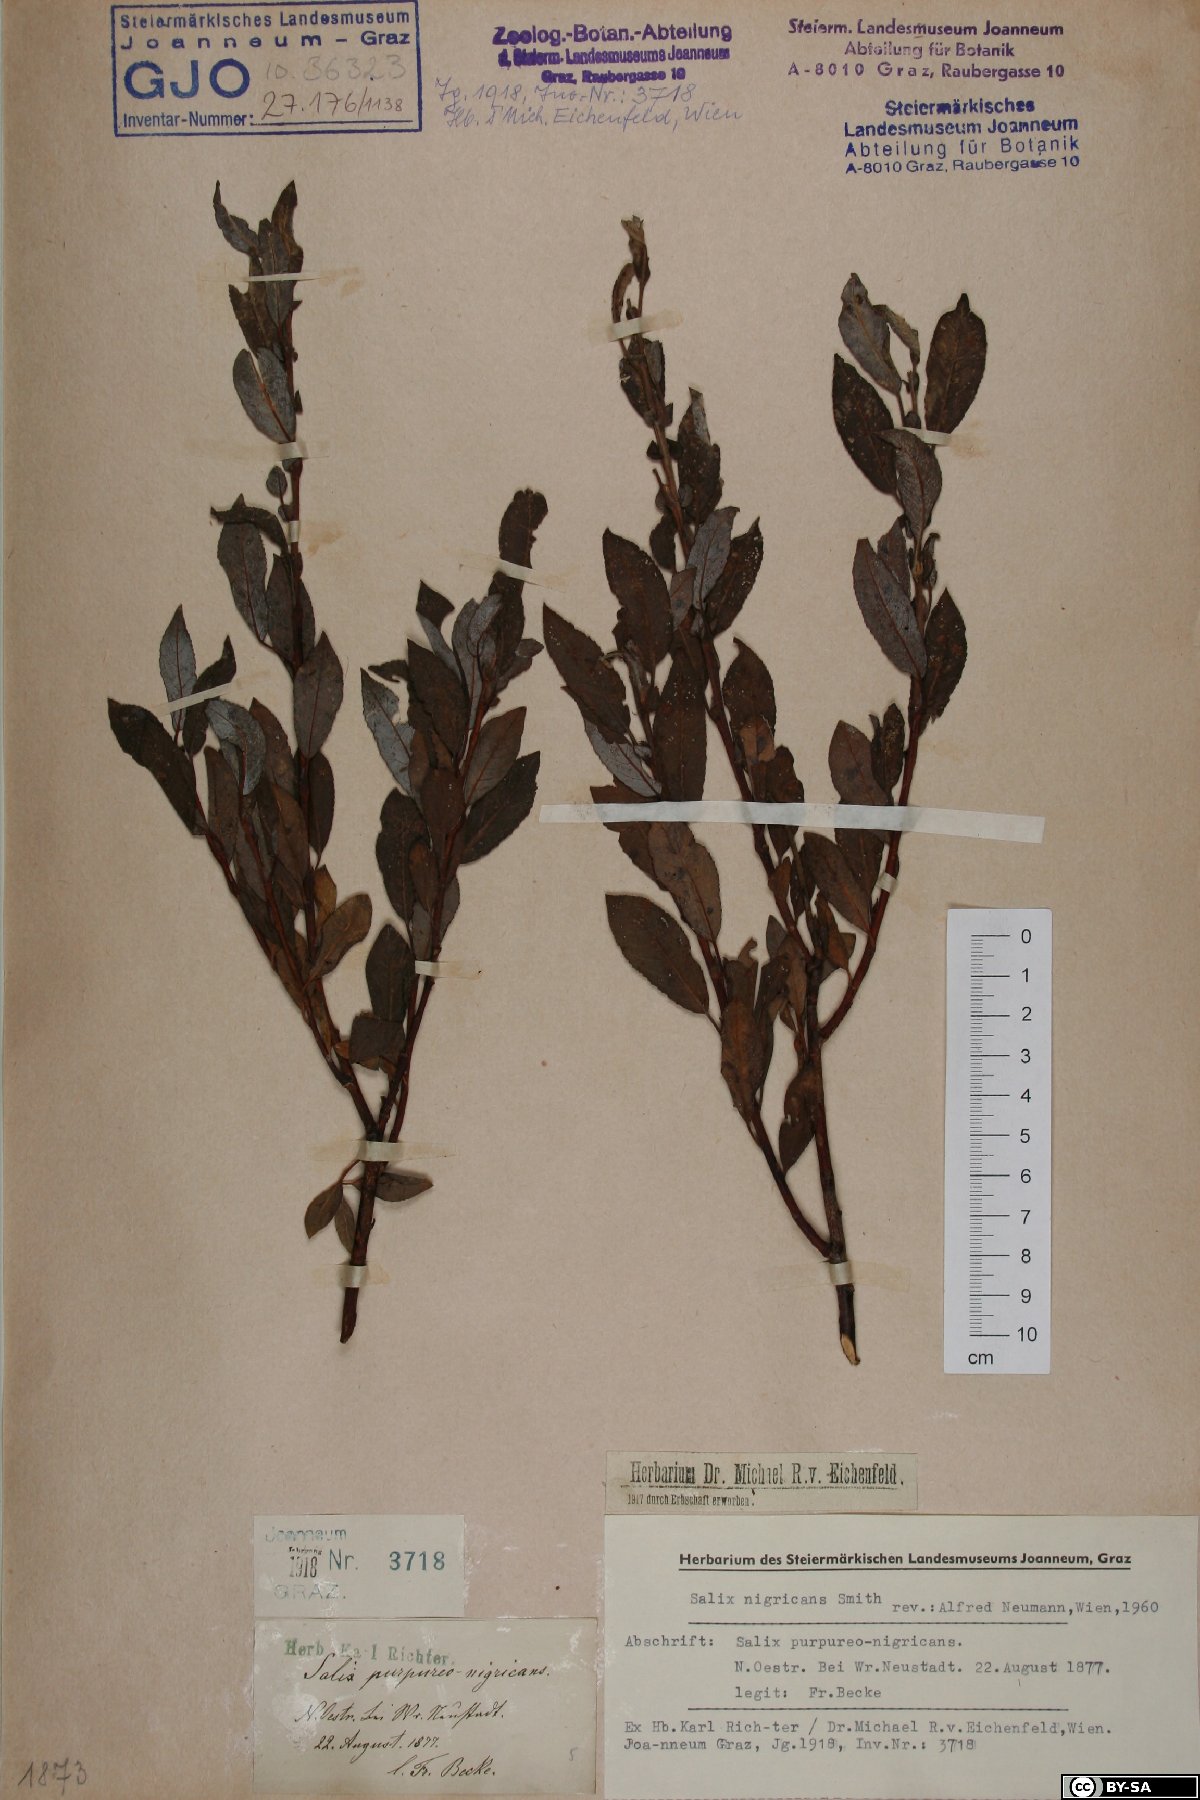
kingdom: Plantae
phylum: Tracheophyta
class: Magnoliopsida
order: Malpighiales
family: Salicaceae
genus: Salix
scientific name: Salix myrsinifolia
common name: Dark-leaved willow
